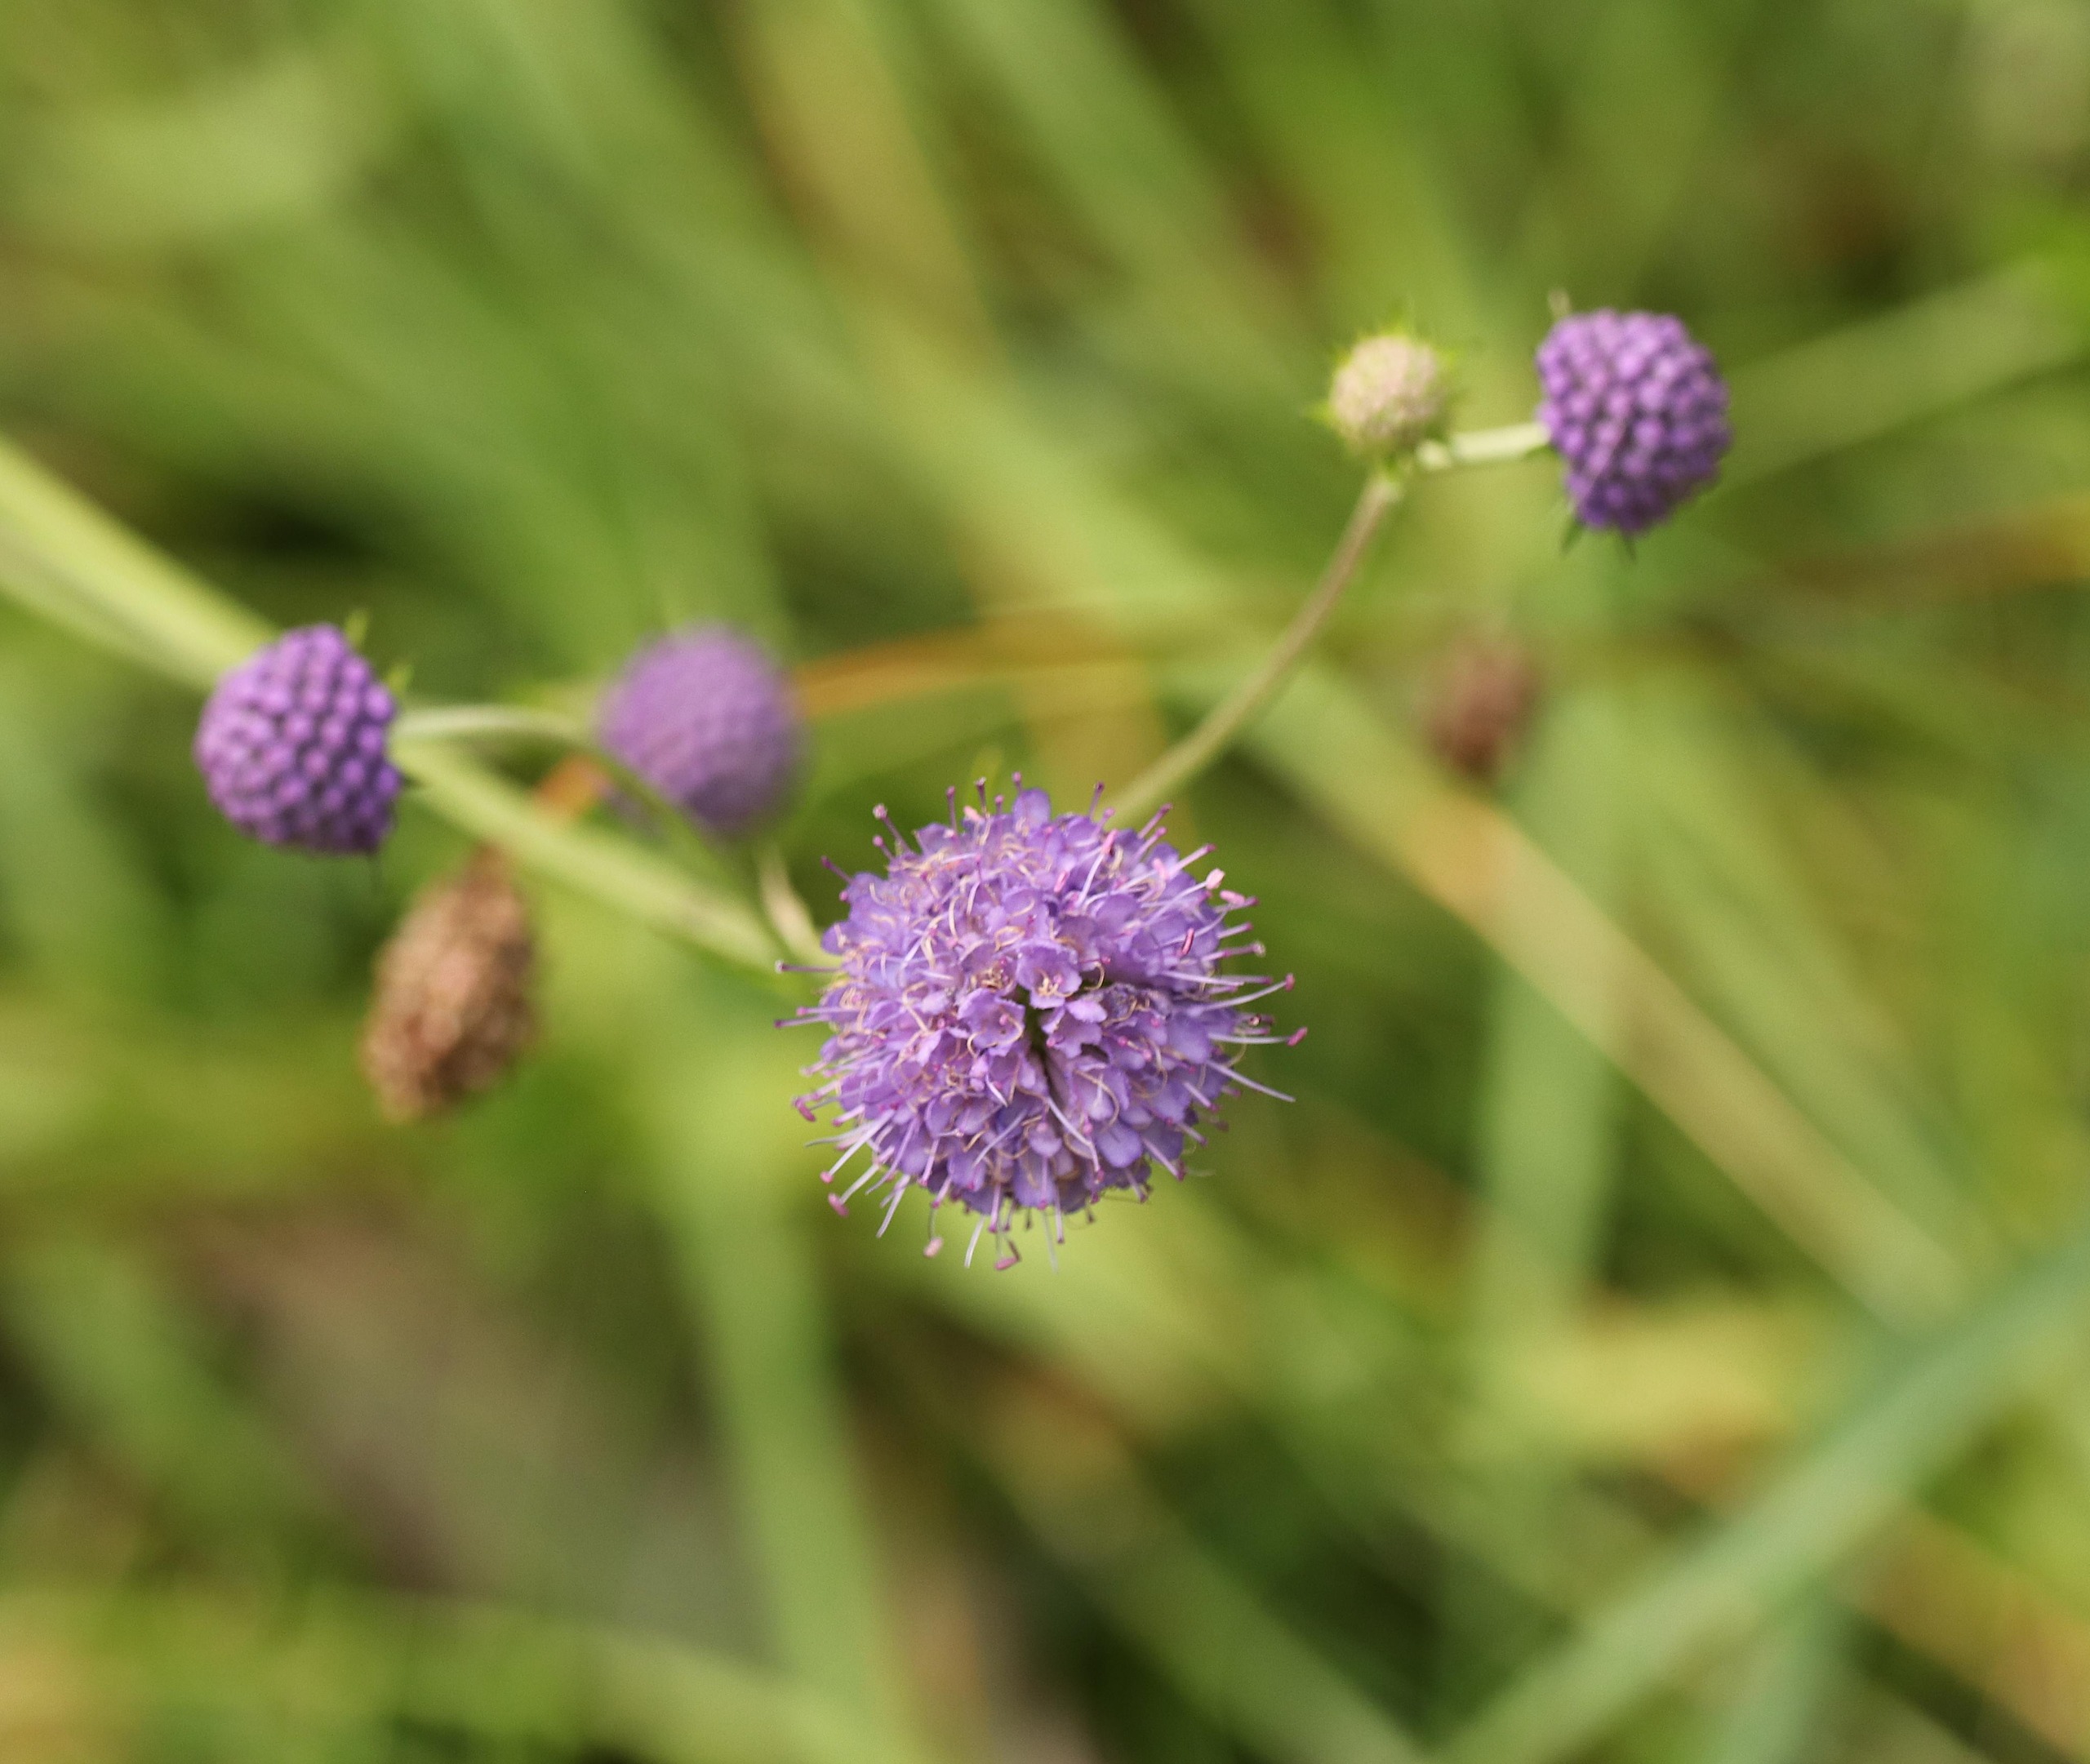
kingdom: Plantae
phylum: Tracheophyta
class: Magnoliopsida
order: Dipsacales
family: Caprifoliaceae
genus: Succisa
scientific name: Succisa pratensis
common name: Djævelsbid
